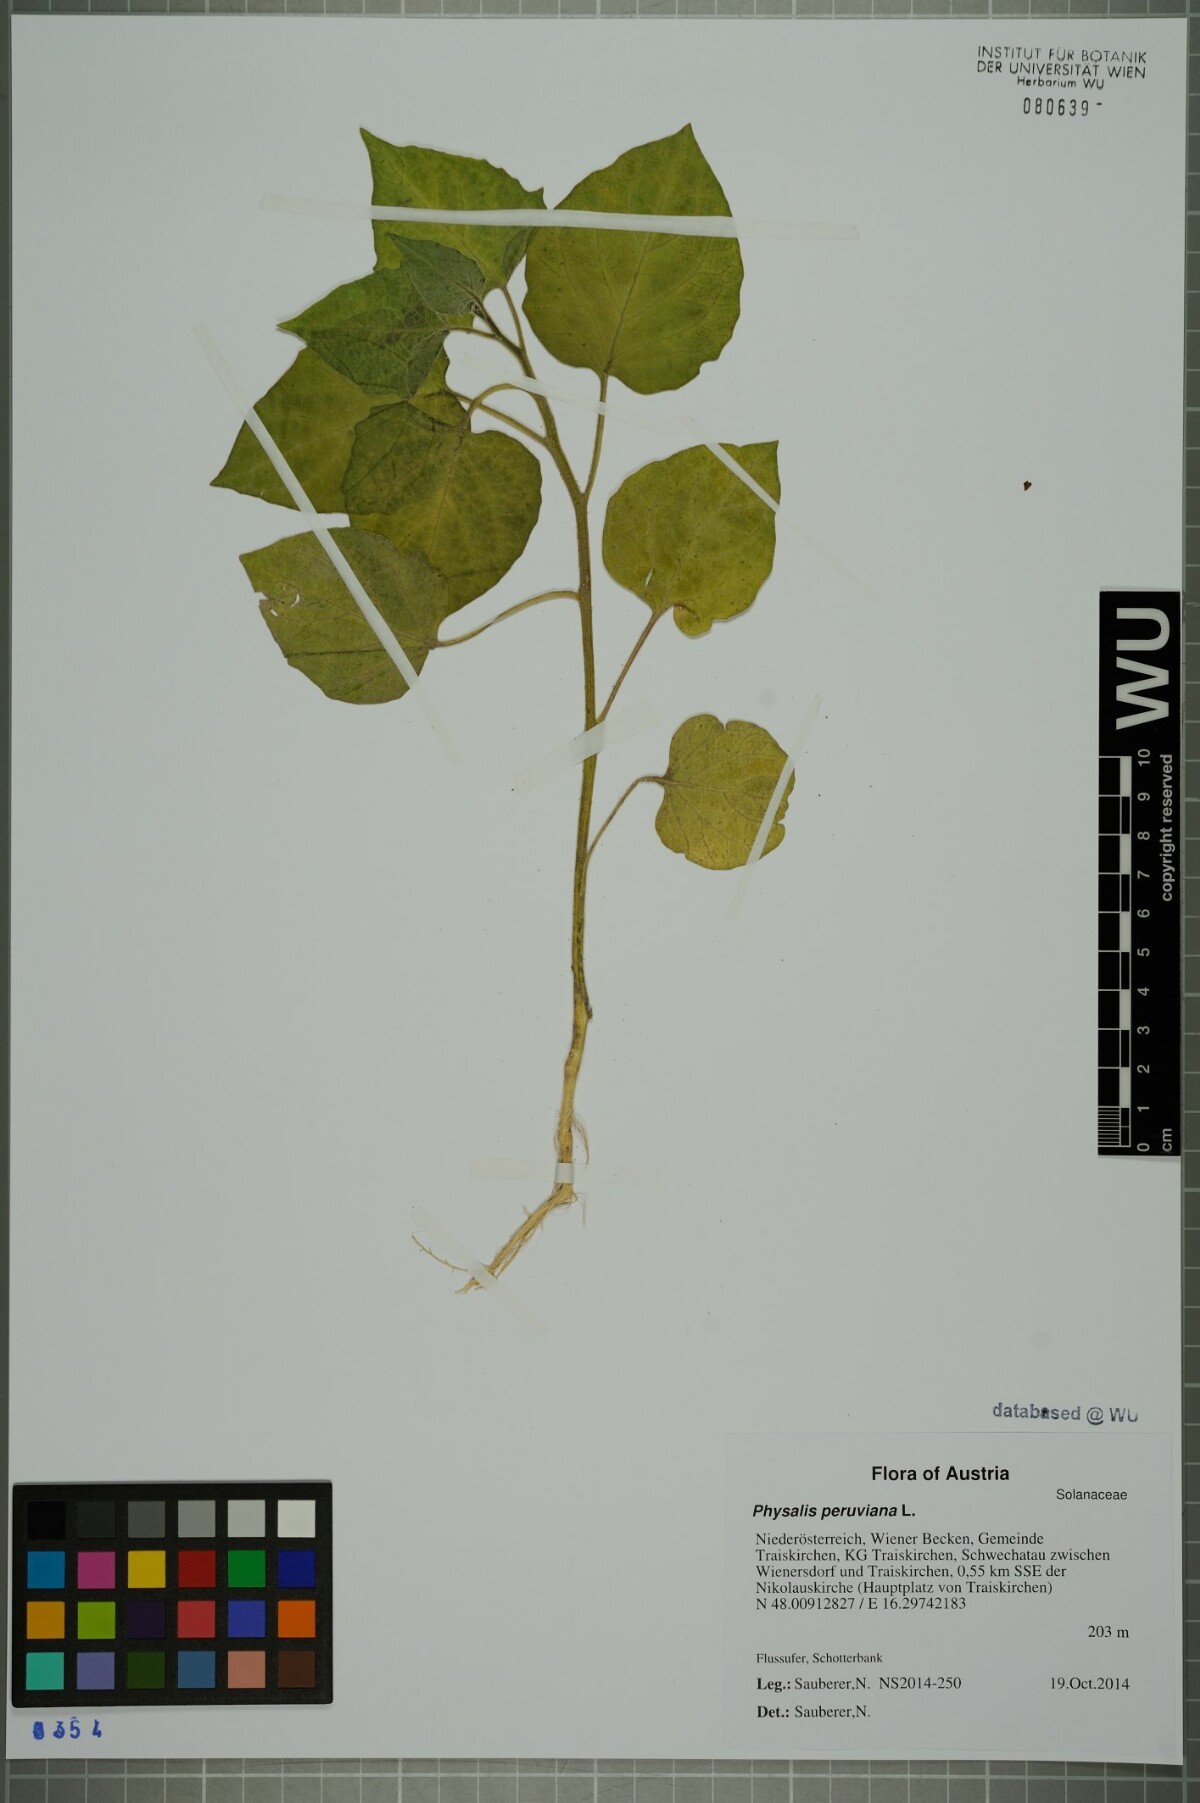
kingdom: Plantae
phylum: Tracheophyta
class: Magnoliopsida
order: Solanales
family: Solanaceae
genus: Physalis
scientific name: Physalis peruviana
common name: Cape-gooseberry
